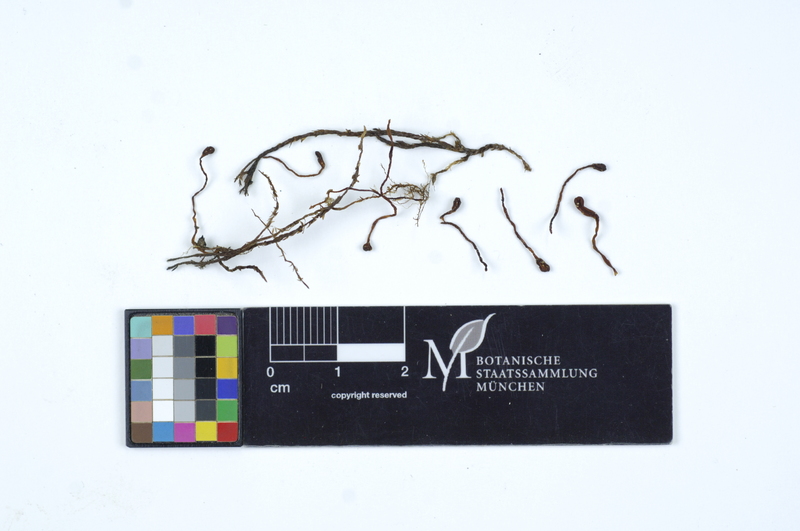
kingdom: Fungi
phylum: Ascomycota
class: Leotiomycetes
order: Helotiales
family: Bryoglossaceae
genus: Bryoglossum
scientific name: Bryoglossum gracile
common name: Fringed sawgill
